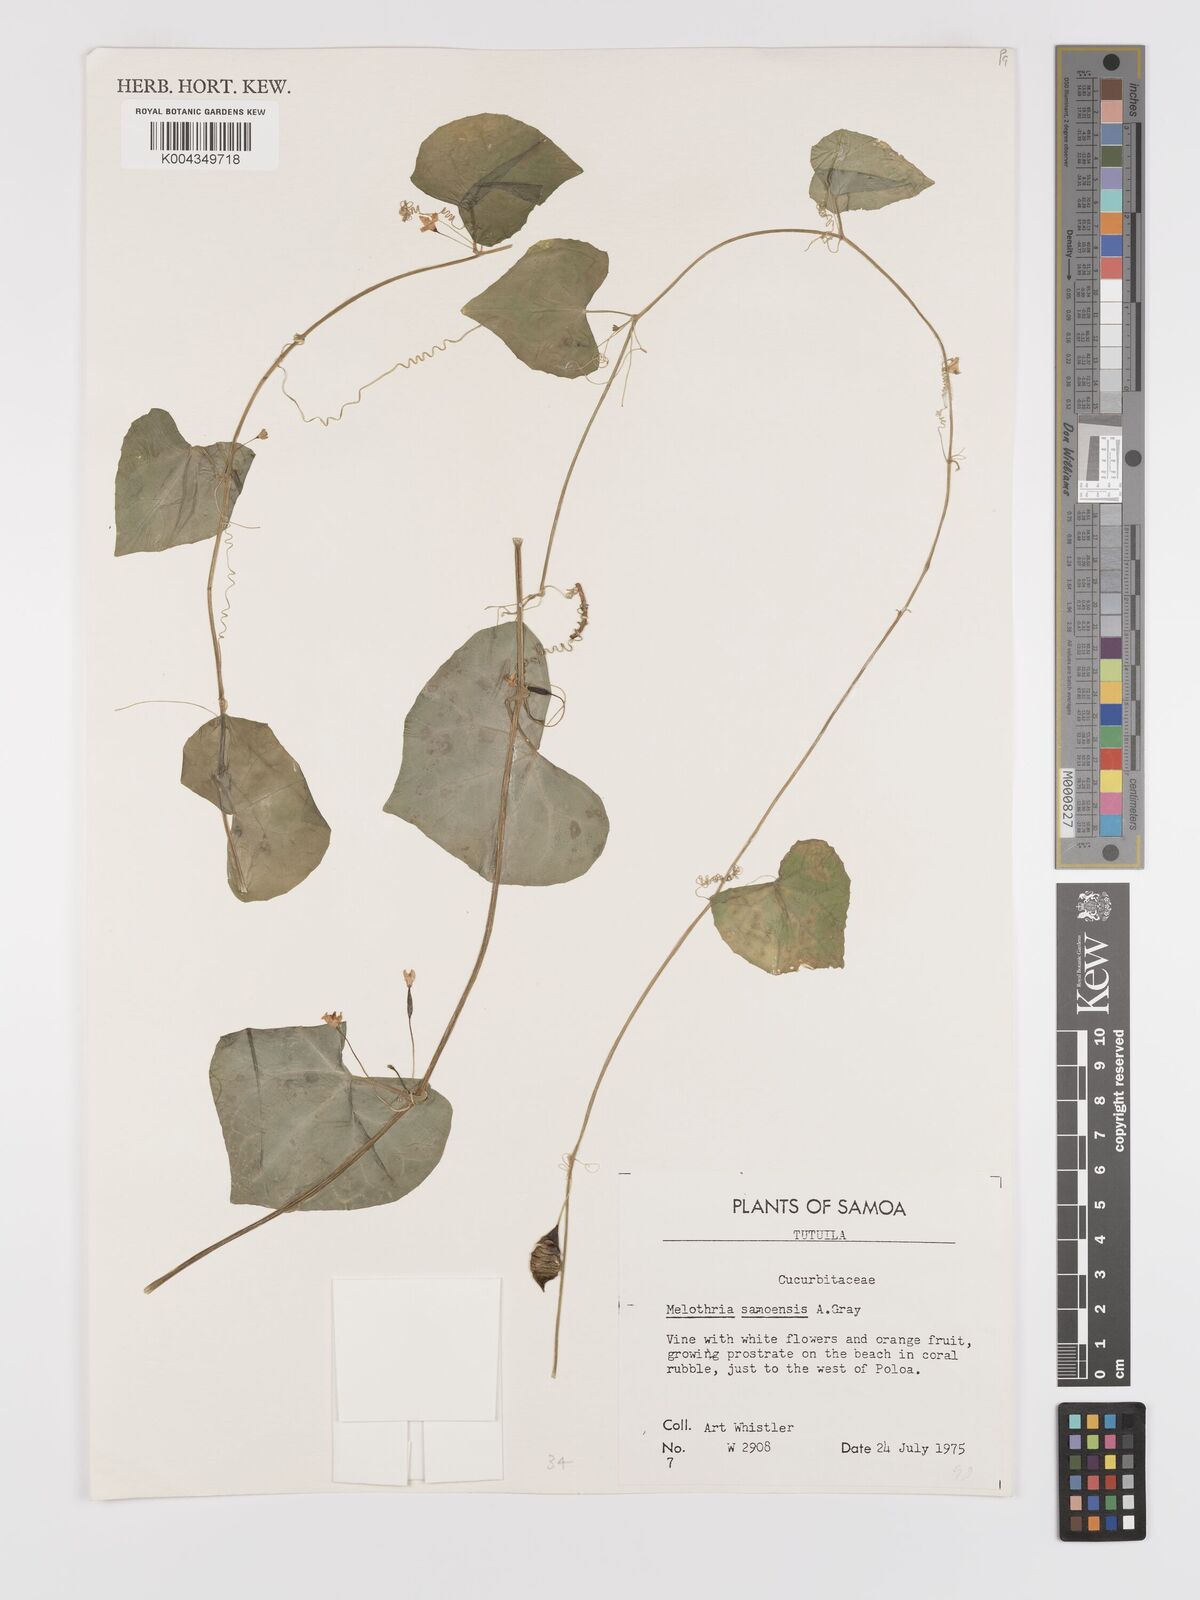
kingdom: Plantae
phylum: Tracheophyta
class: Magnoliopsida
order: Cucurbitales
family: Cucurbitaceae
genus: Zehneria
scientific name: Zehneria mucronata
